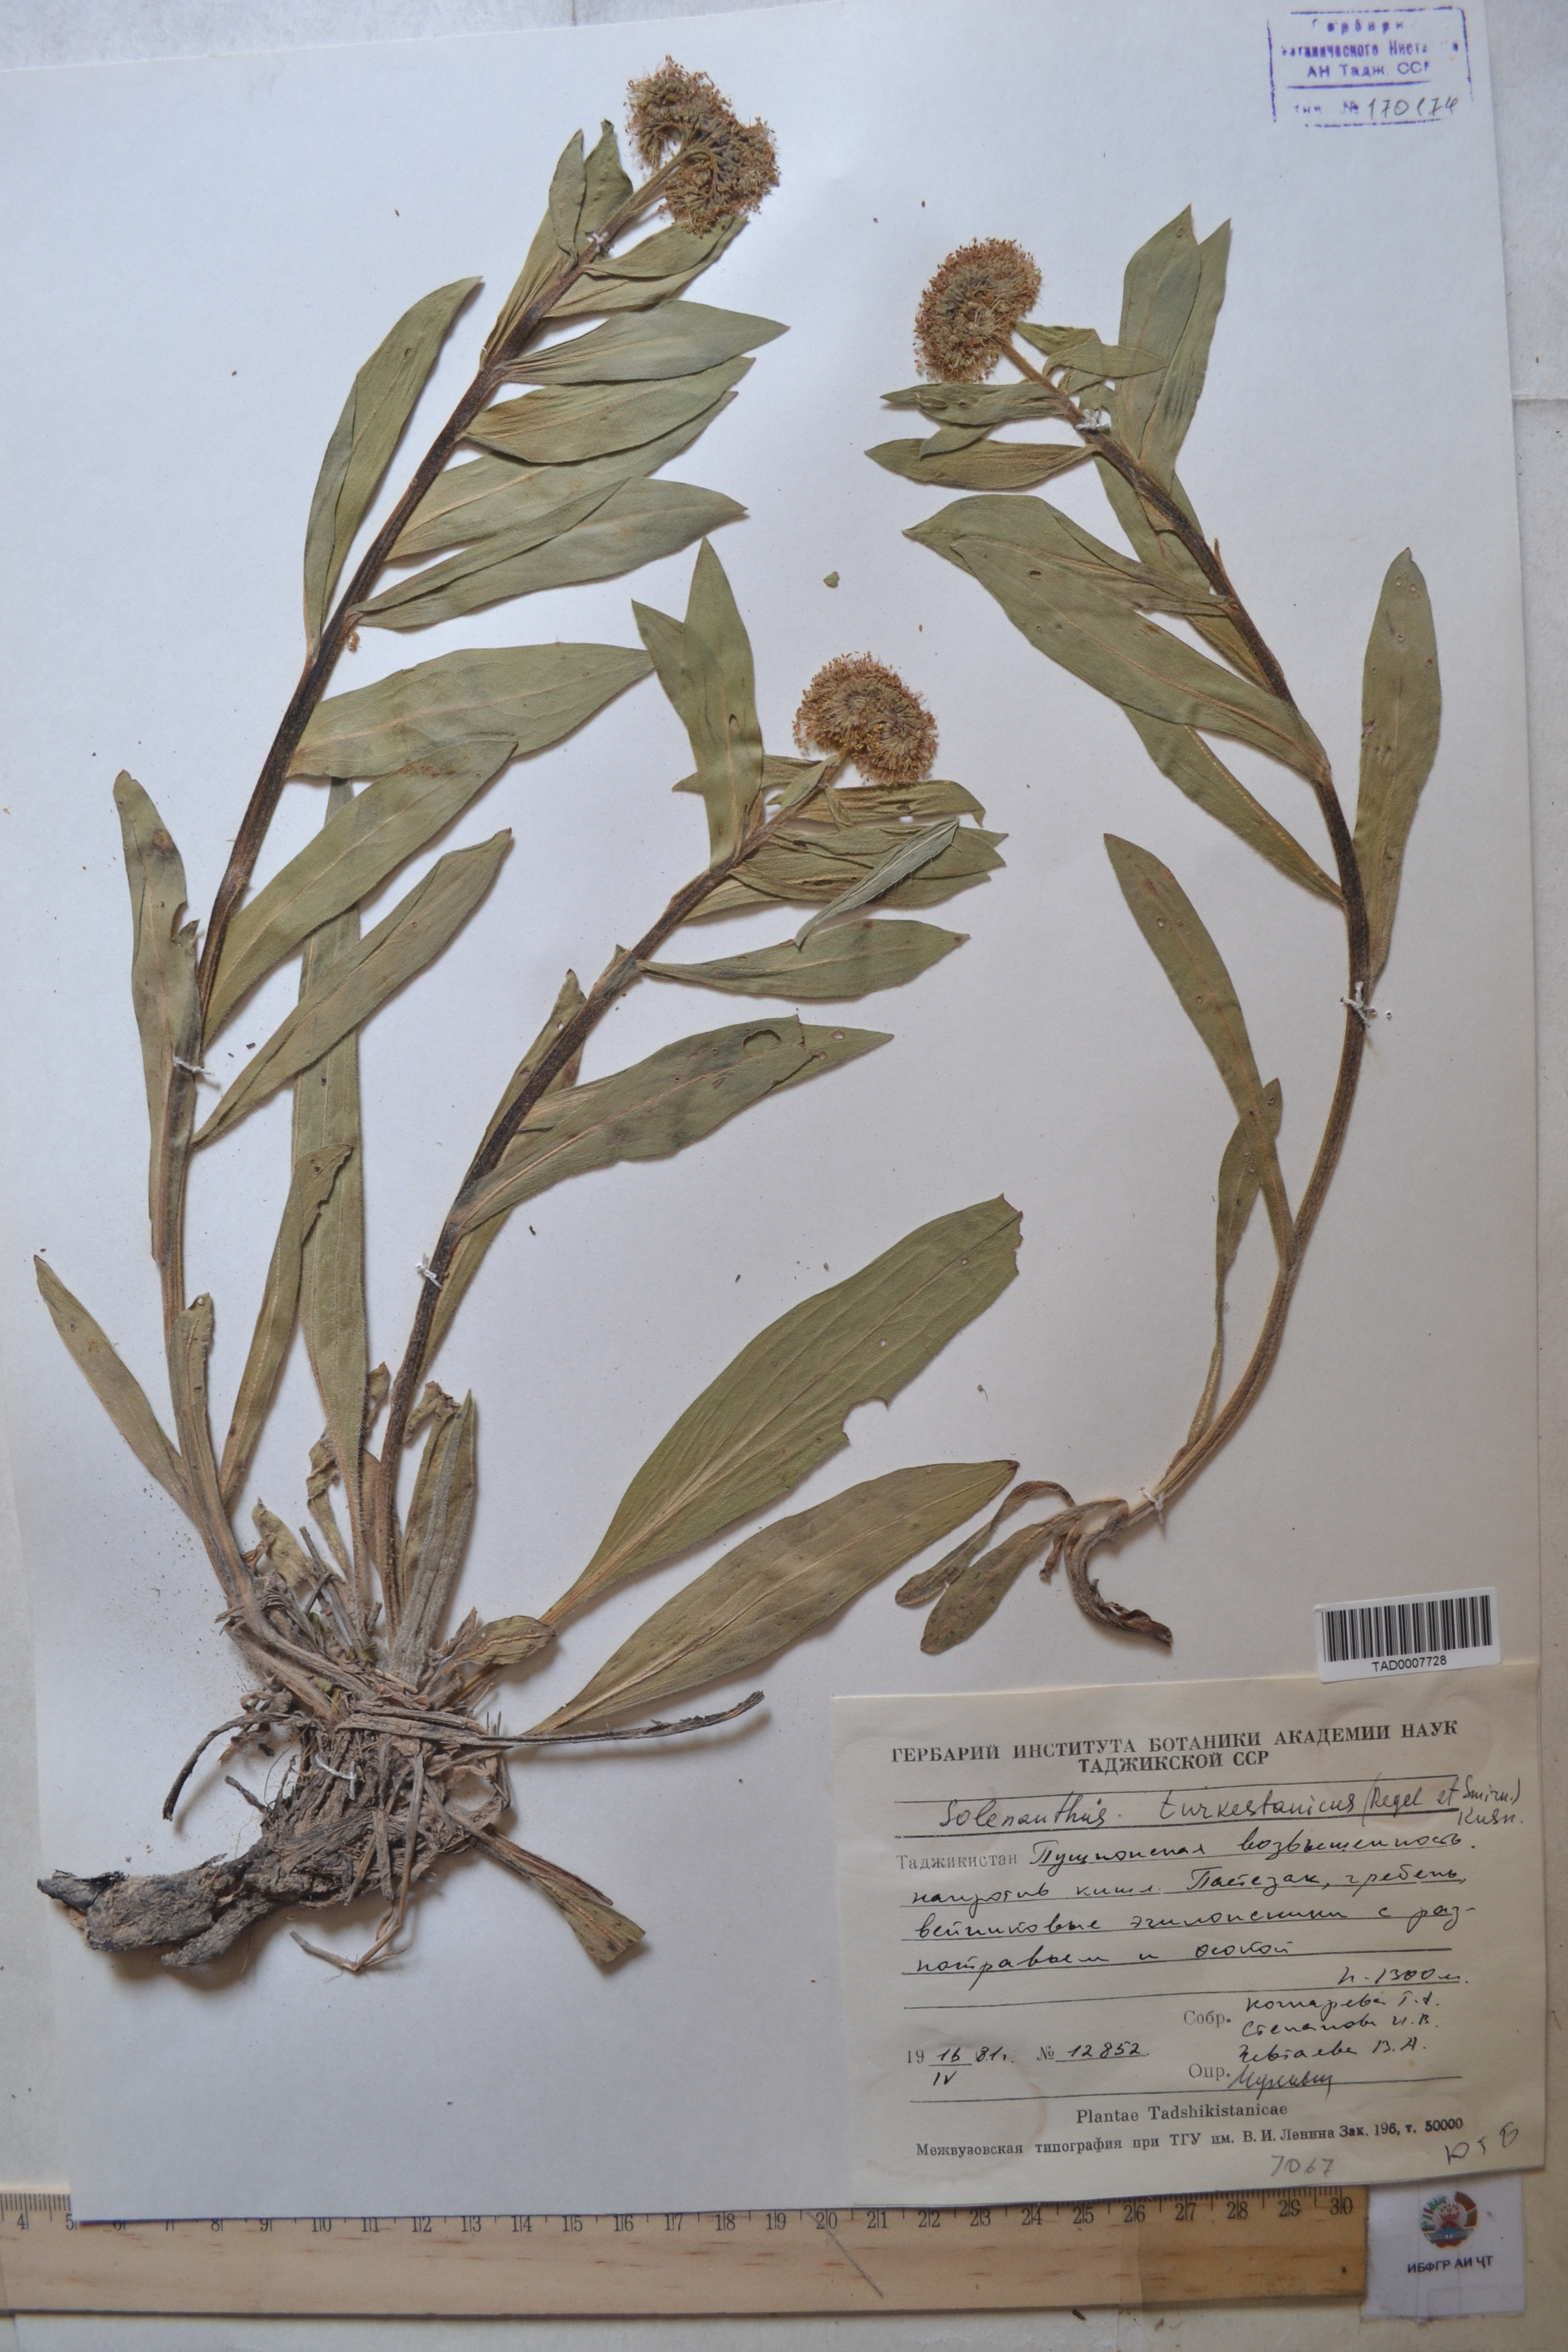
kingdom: Plantae
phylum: Tracheophyta
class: Magnoliopsida
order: Boraginales
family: Boraginaceae
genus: Solenanthus
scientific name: Solenanthus turkestanicus
